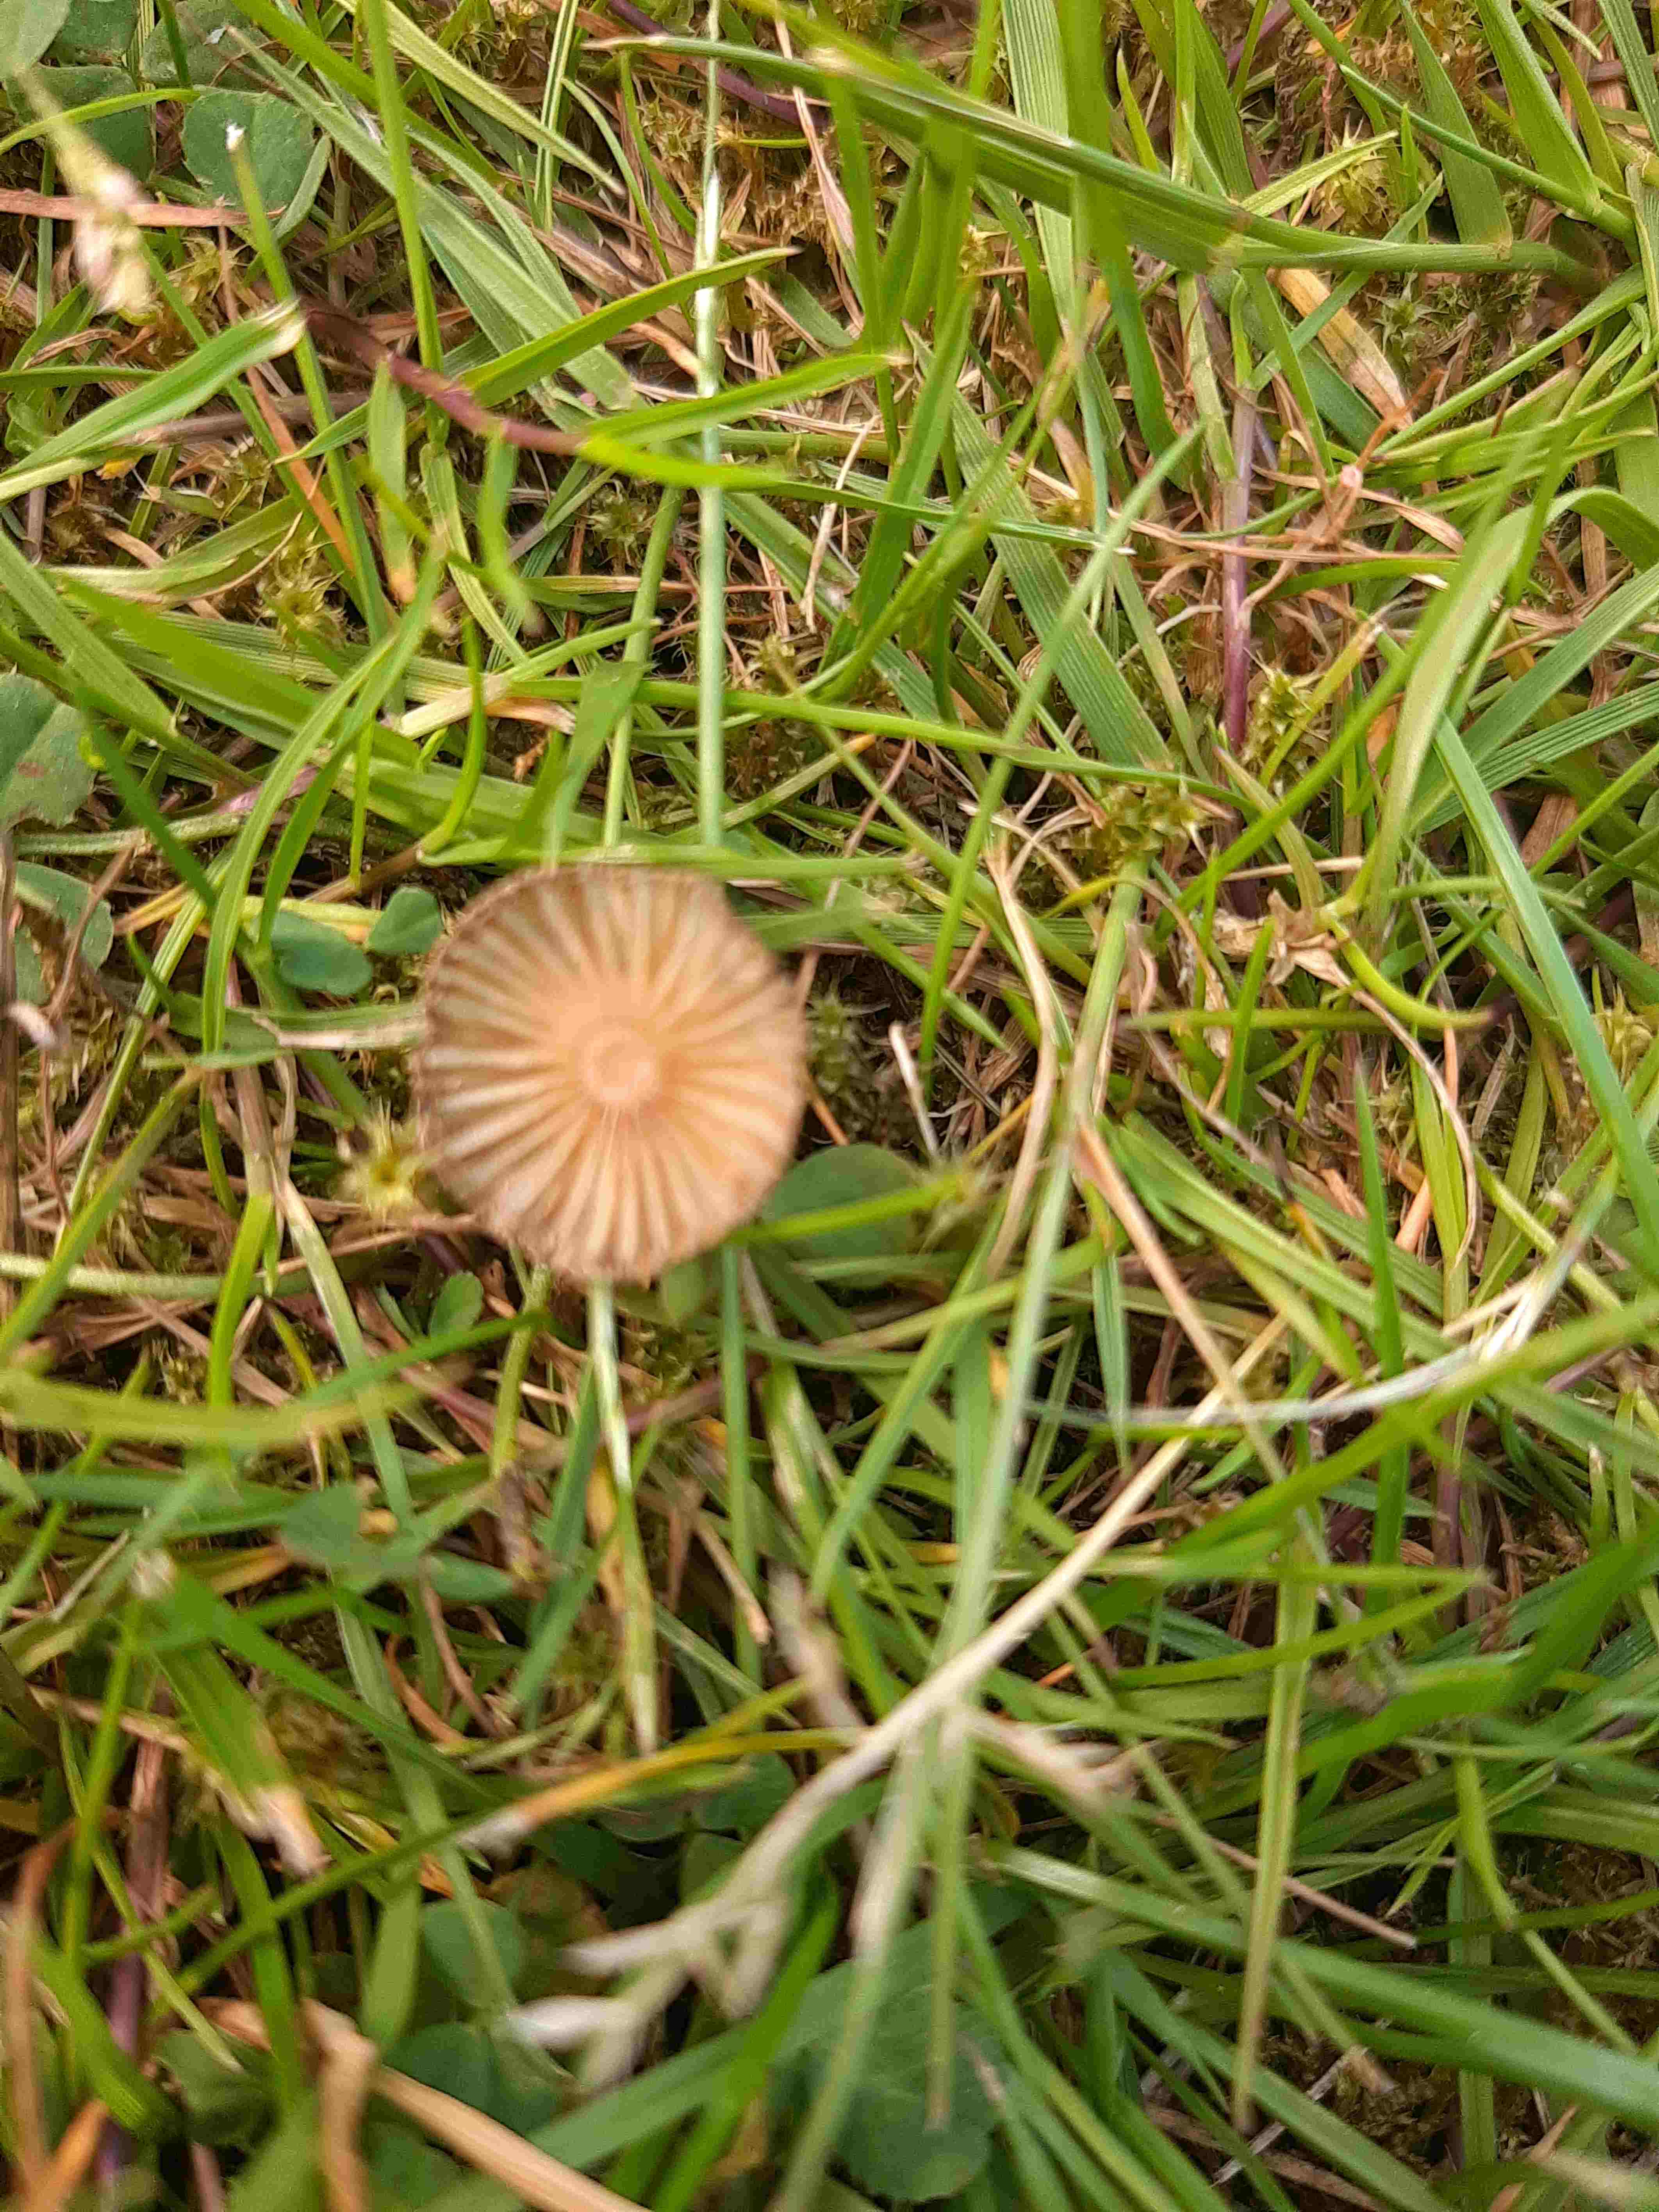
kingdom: Fungi
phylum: Basidiomycota
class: Agaricomycetes
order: Agaricales
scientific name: Agaricales
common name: champignonordenen
